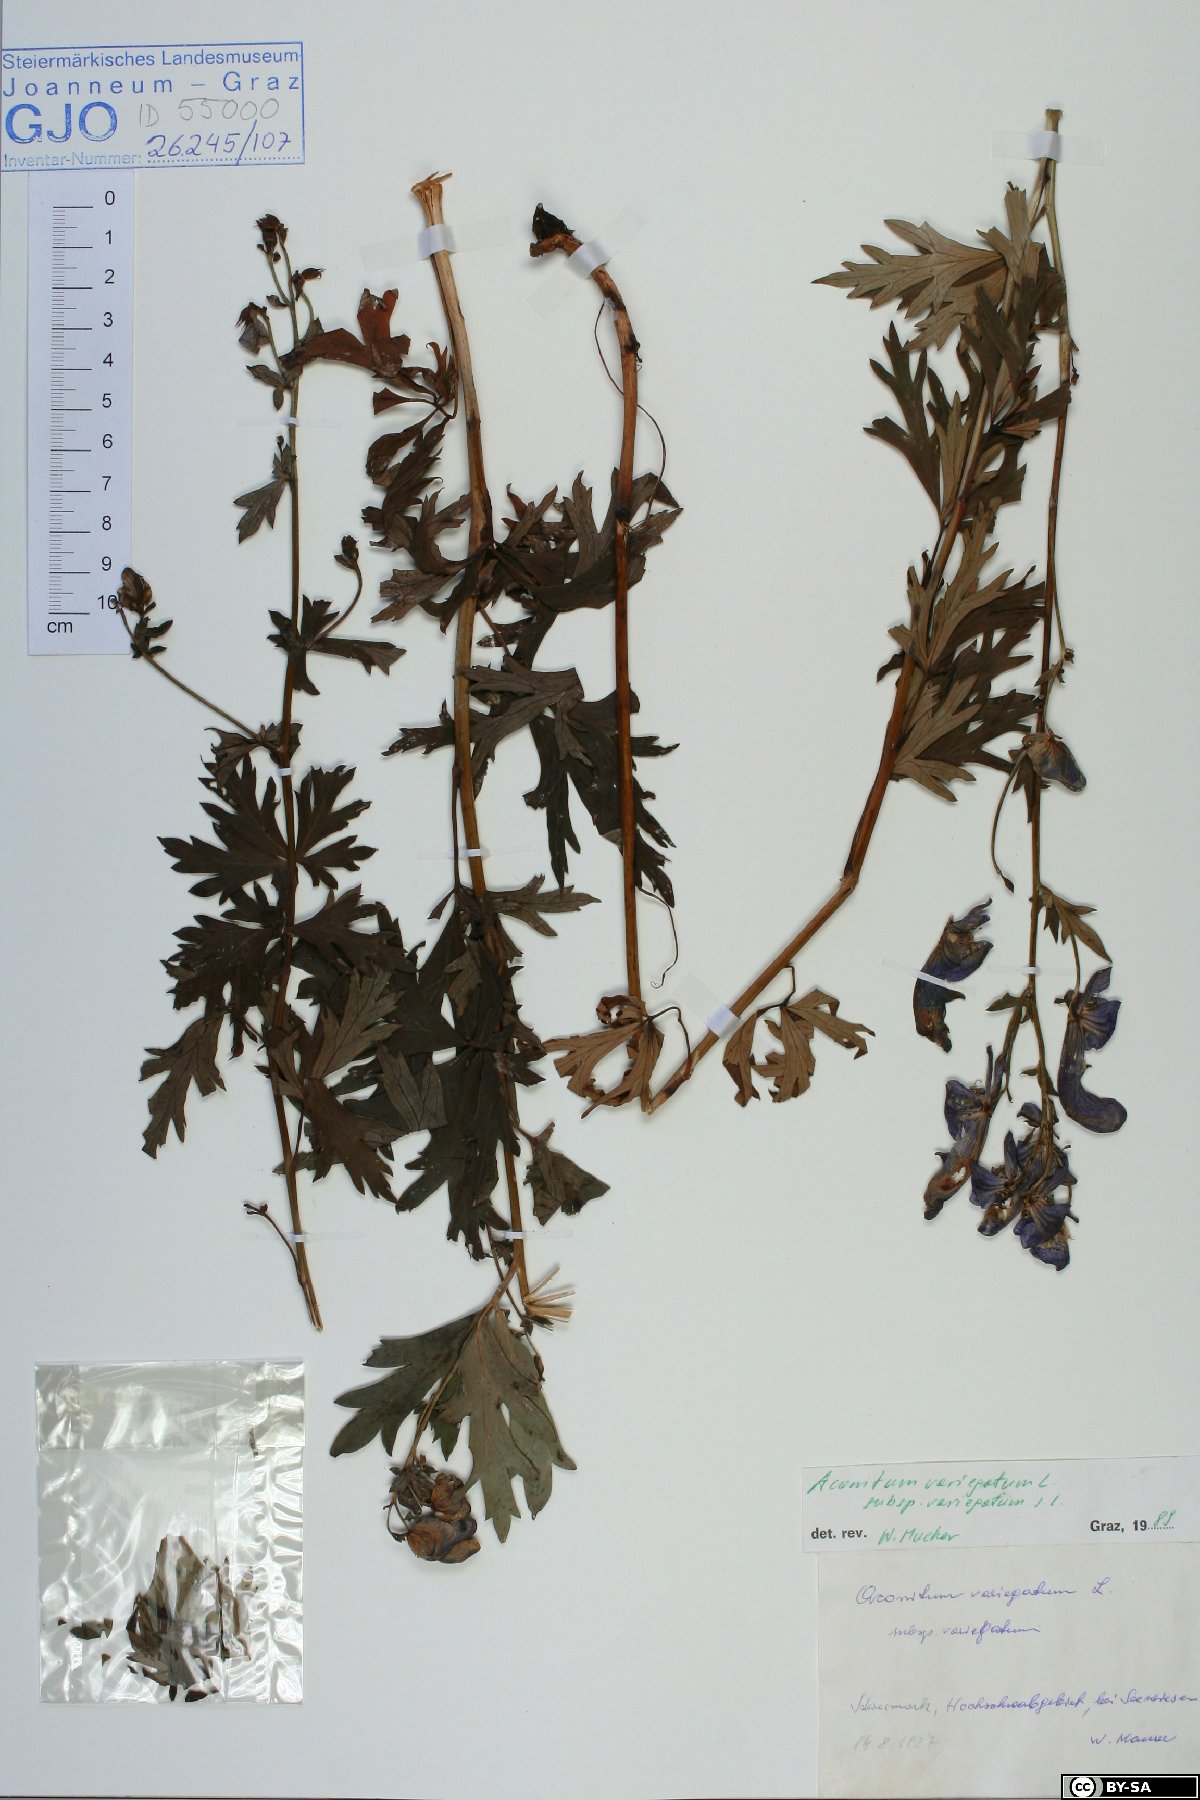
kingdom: Plantae
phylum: Tracheophyta
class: Magnoliopsida
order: Ranunculales
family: Ranunculaceae
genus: Aconitum
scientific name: Aconitum variegatum
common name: Manchurian monkshood
